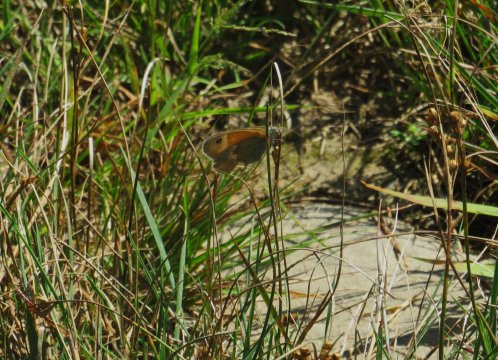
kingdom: Animalia
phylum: Arthropoda
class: Insecta
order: Lepidoptera
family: Nymphalidae
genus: Coenonympha
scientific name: Coenonympha tullia
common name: Large Heath
